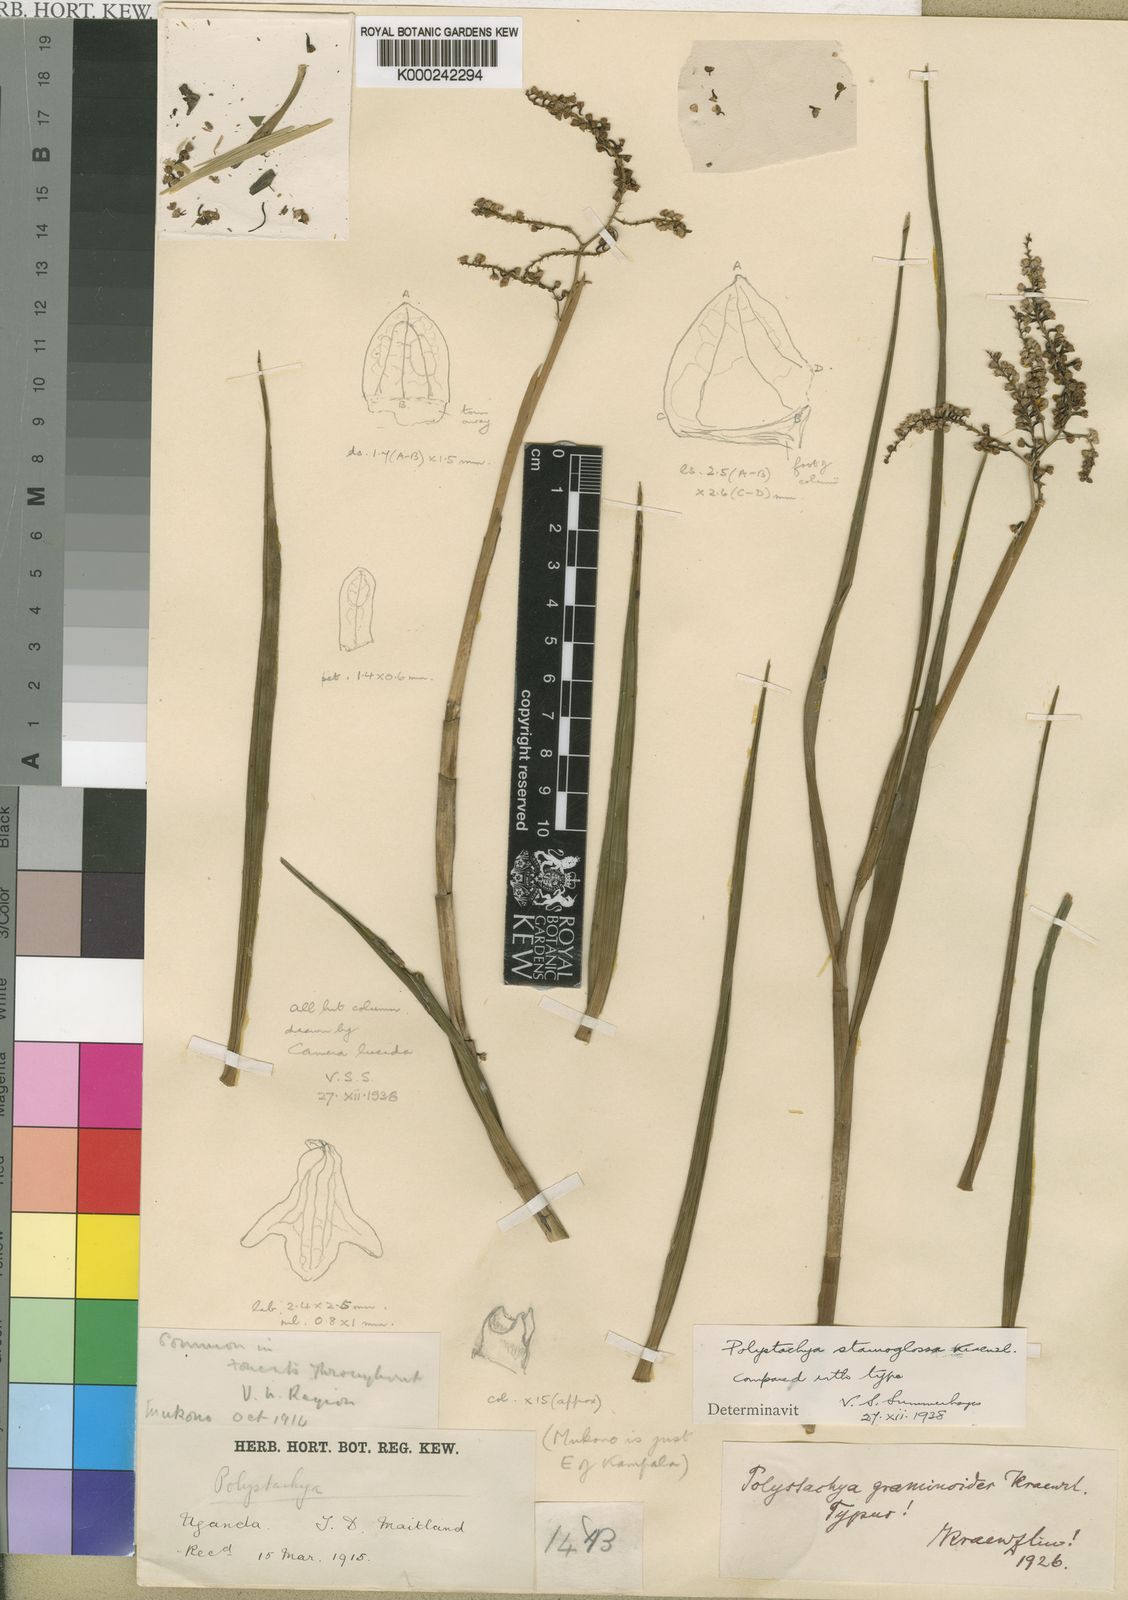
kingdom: Plantae
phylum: Tracheophyta
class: Liliopsida
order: Asparagales
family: Orchidaceae
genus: Polystachya
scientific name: Polystachya stauroglossa
